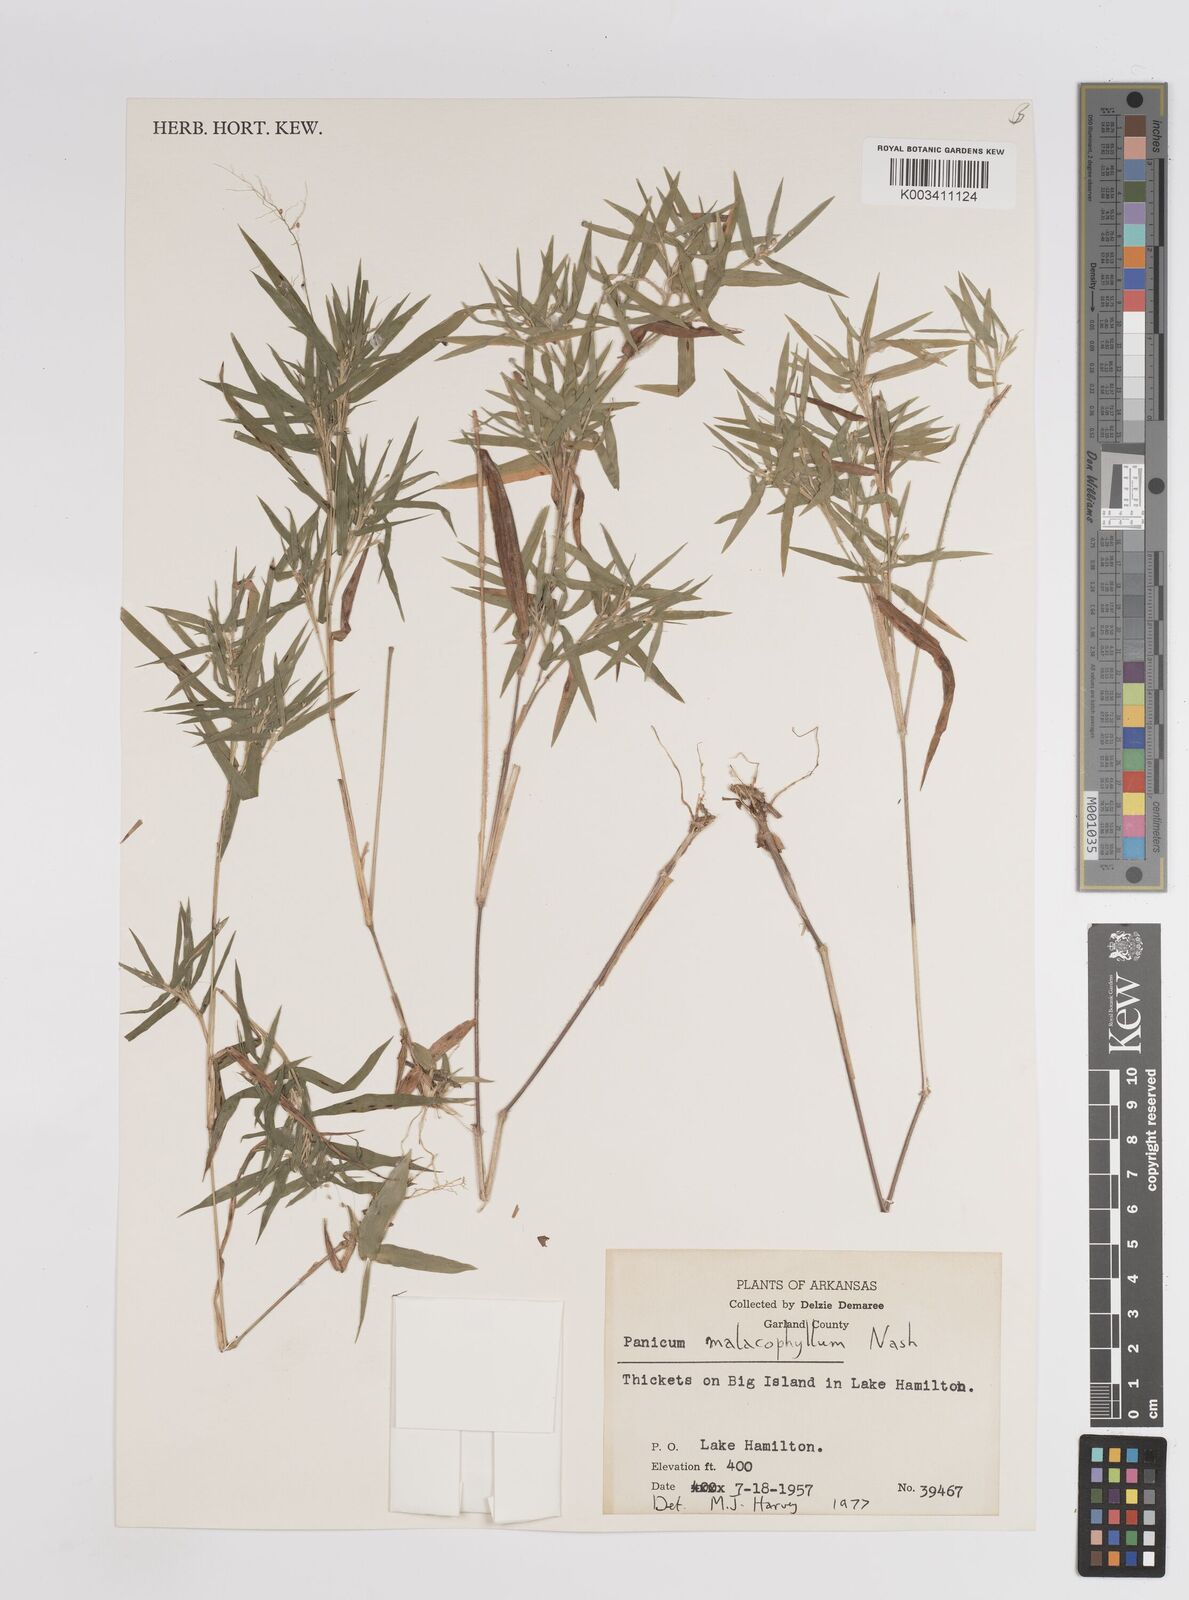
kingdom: Plantae
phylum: Tracheophyta
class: Liliopsida
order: Poales
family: Poaceae
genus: Dichanthelium
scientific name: Dichanthelium malacophyllum
